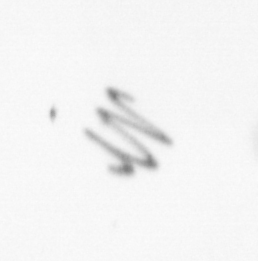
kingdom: Chromista
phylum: Ochrophyta
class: Bacillariophyceae
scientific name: Bacillariophyceae
